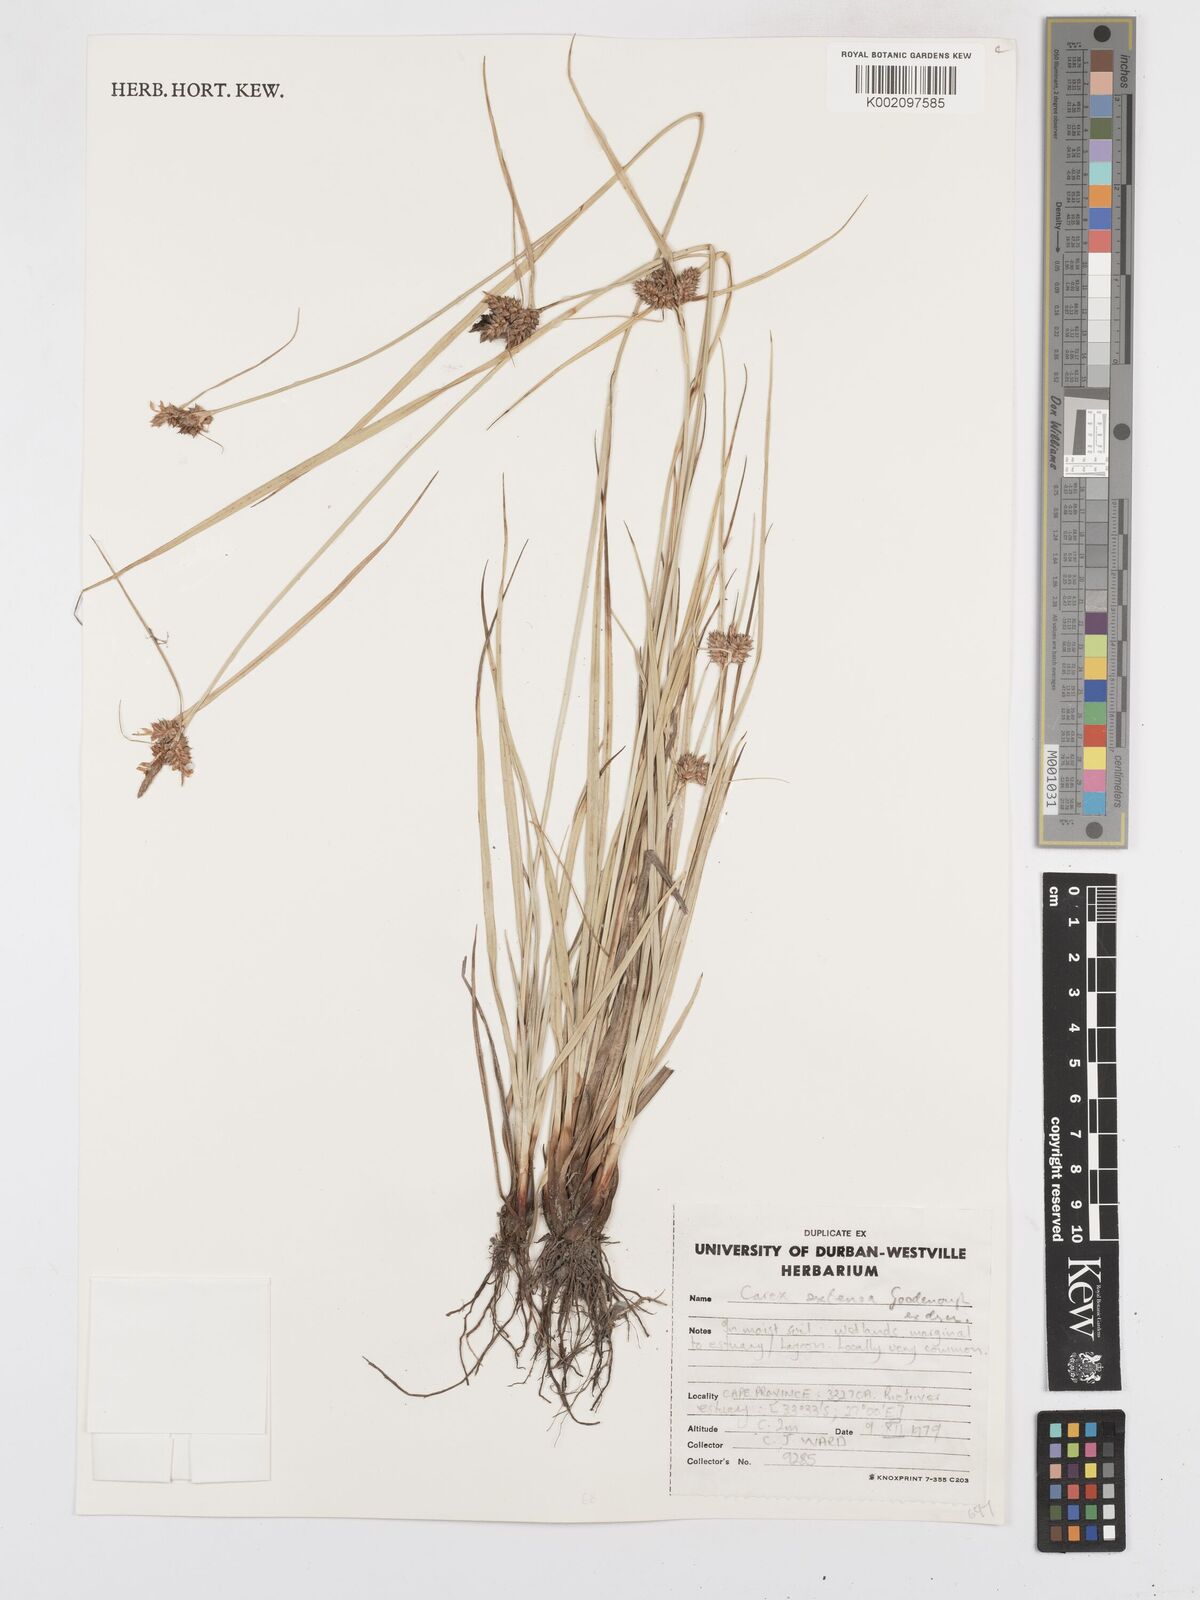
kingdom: Plantae
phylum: Tracheophyta
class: Liliopsida
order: Poales
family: Cyperaceae
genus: Carex
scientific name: Carex extensa
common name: Long-bracted sedge
